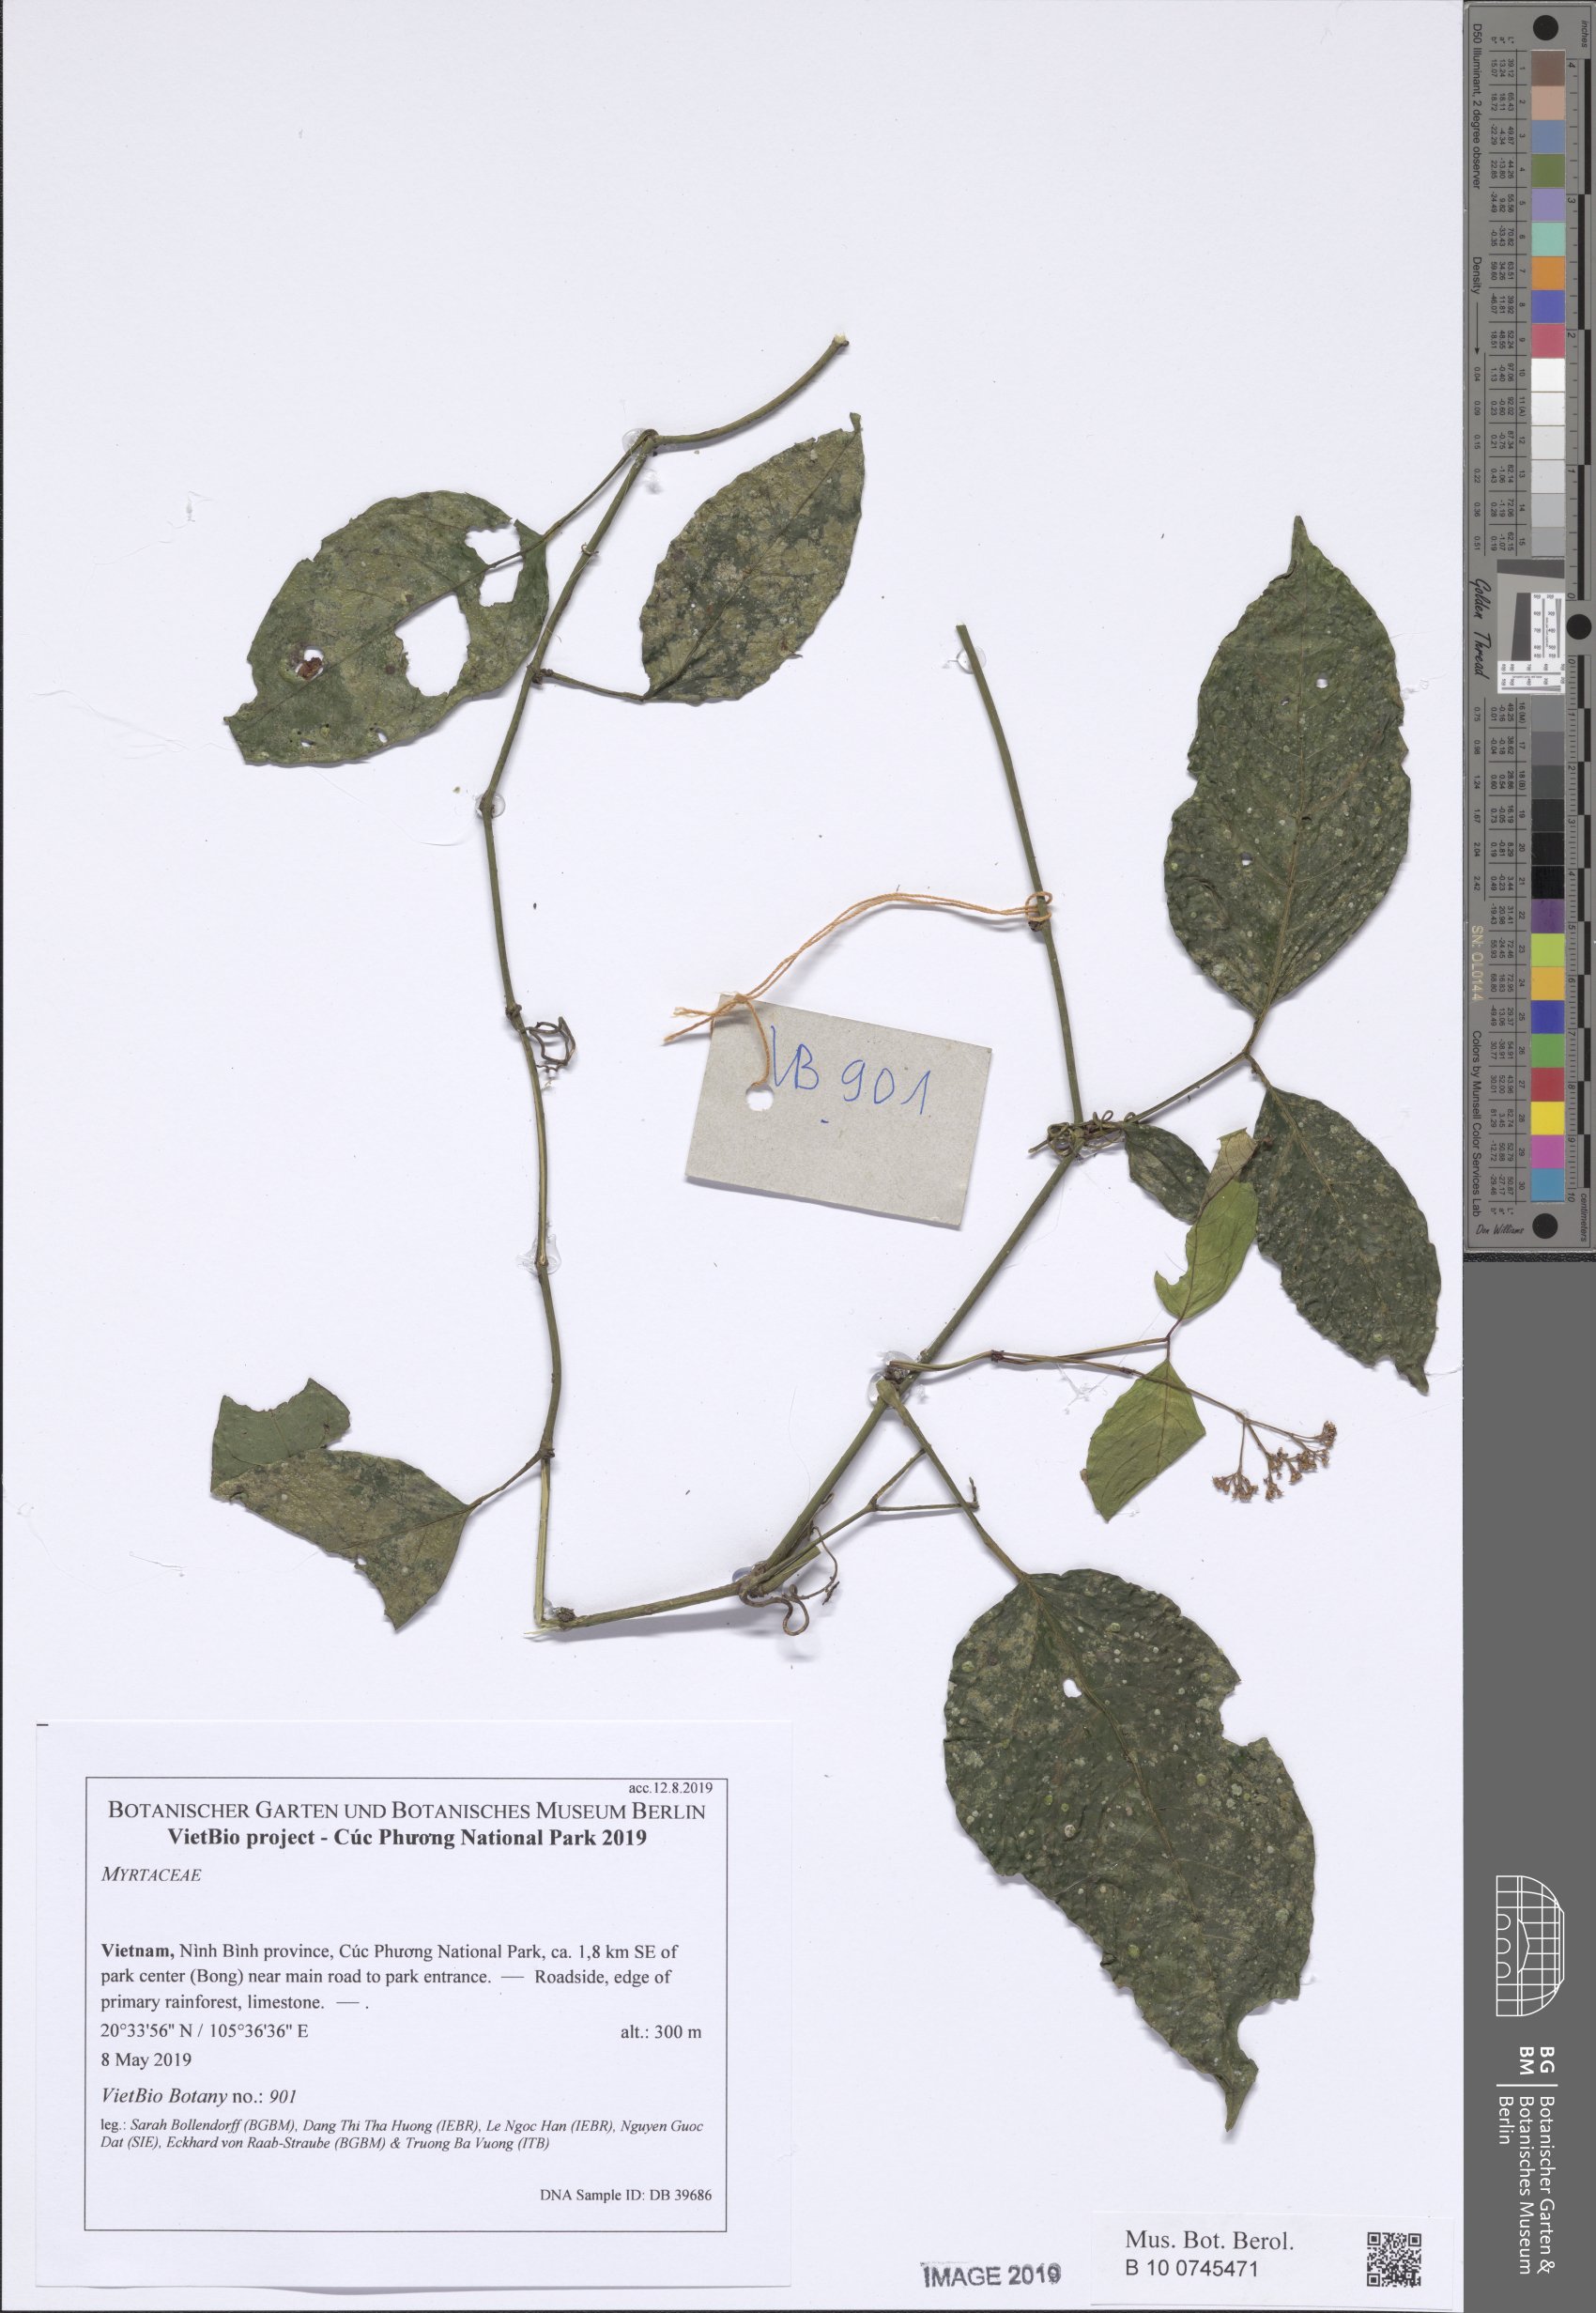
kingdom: Plantae
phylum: Tracheophyta
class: Magnoliopsida
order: Vitales
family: Vitaceae
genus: Tetrastigma
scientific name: Tetrastigma
